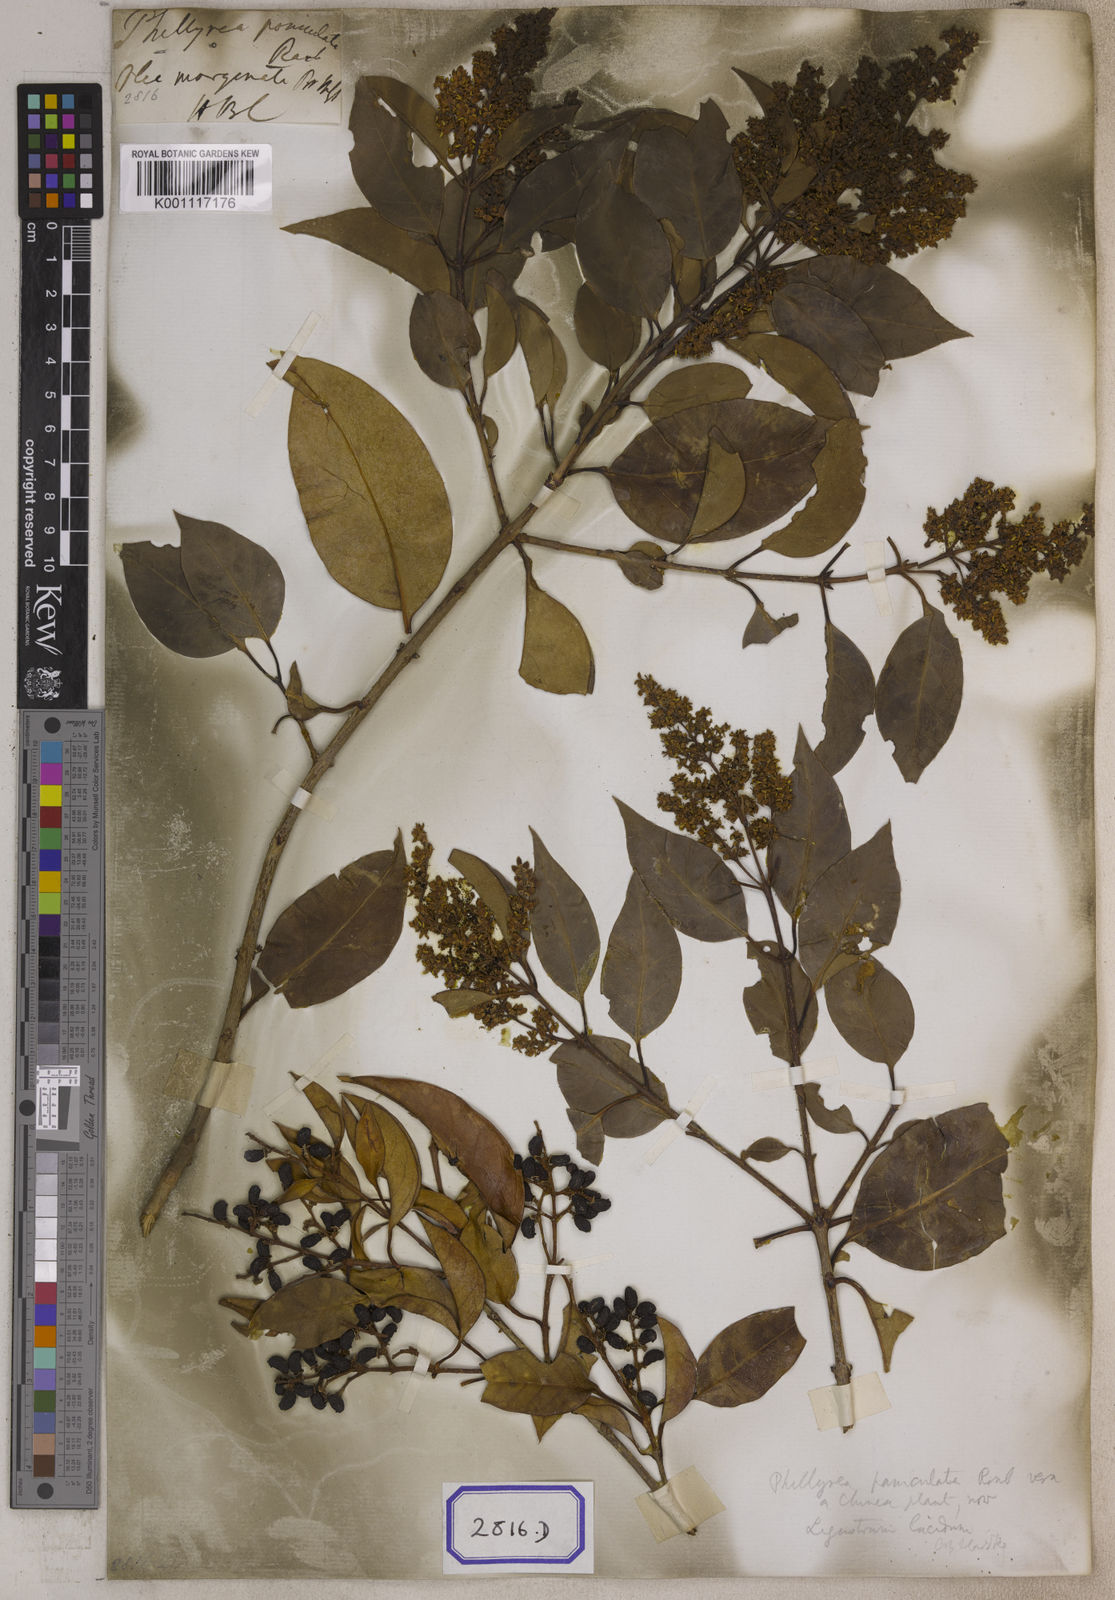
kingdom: Plantae
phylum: Tracheophyta
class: Magnoliopsida
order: Lamiales
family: Oleaceae
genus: Olea
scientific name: Olea
